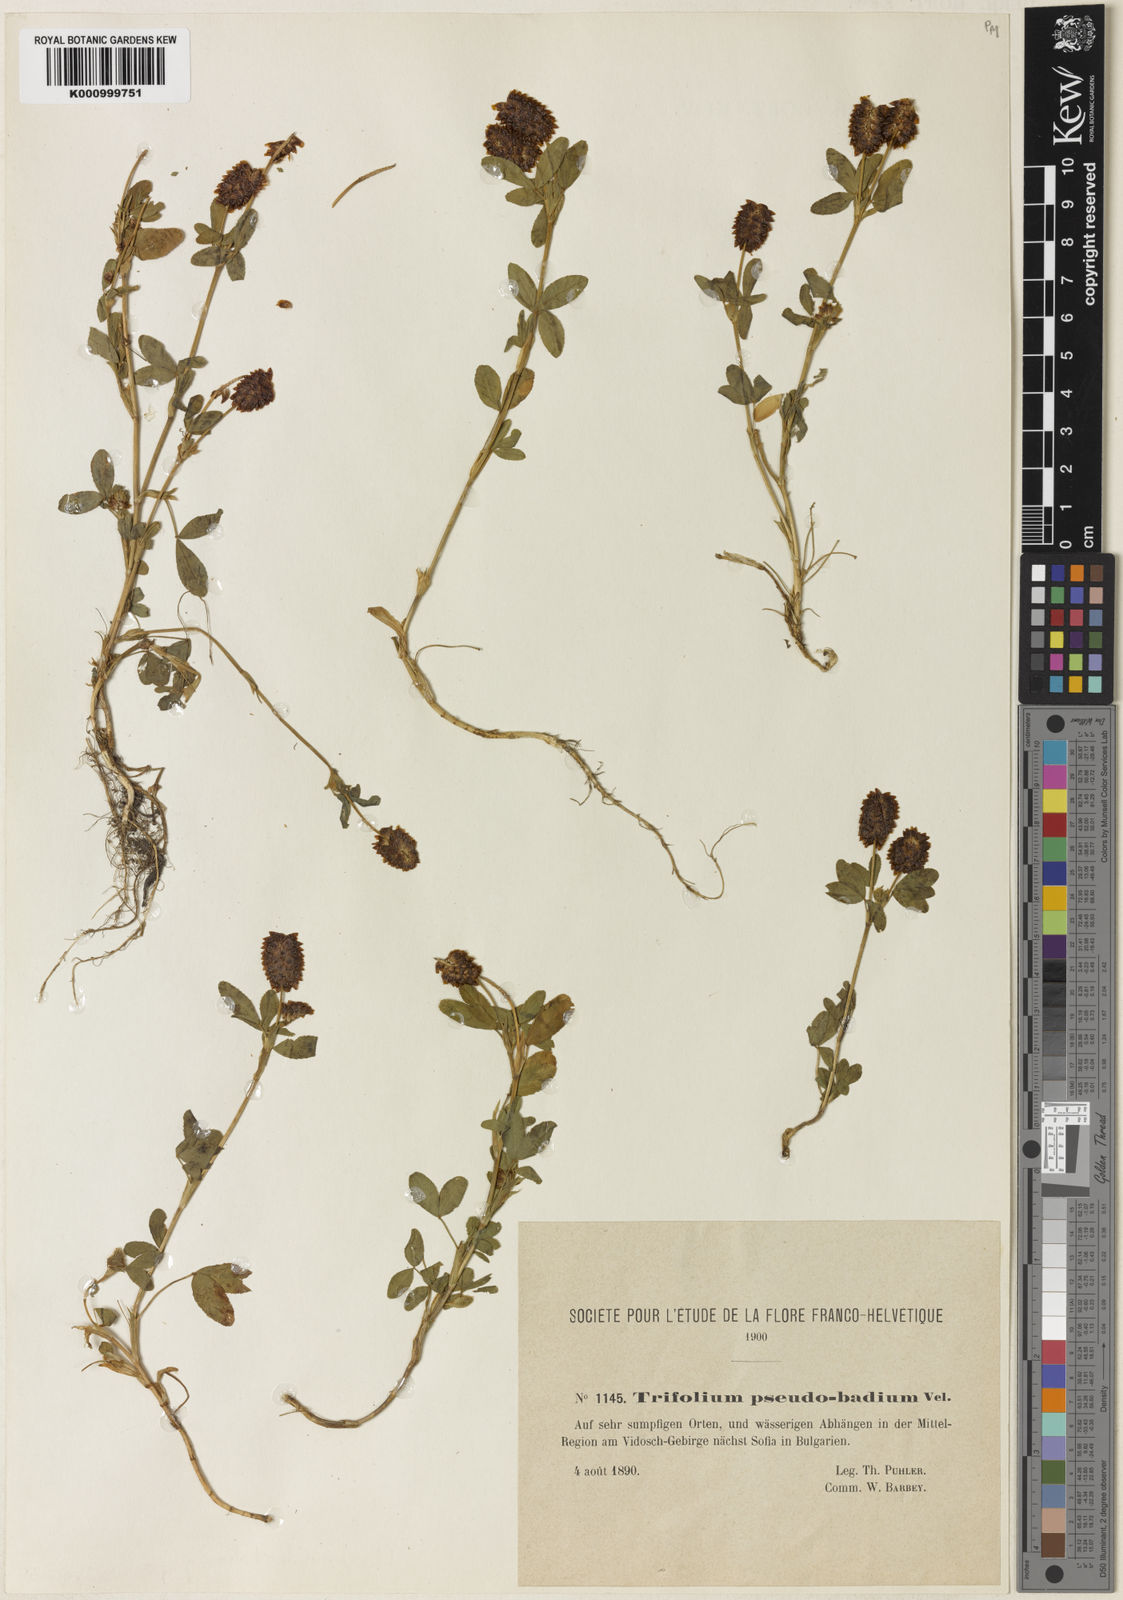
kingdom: Plantae
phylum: Tracheophyta
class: Magnoliopsida
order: Fabales
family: Fabaceae
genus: Trifolium
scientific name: Trifolium
